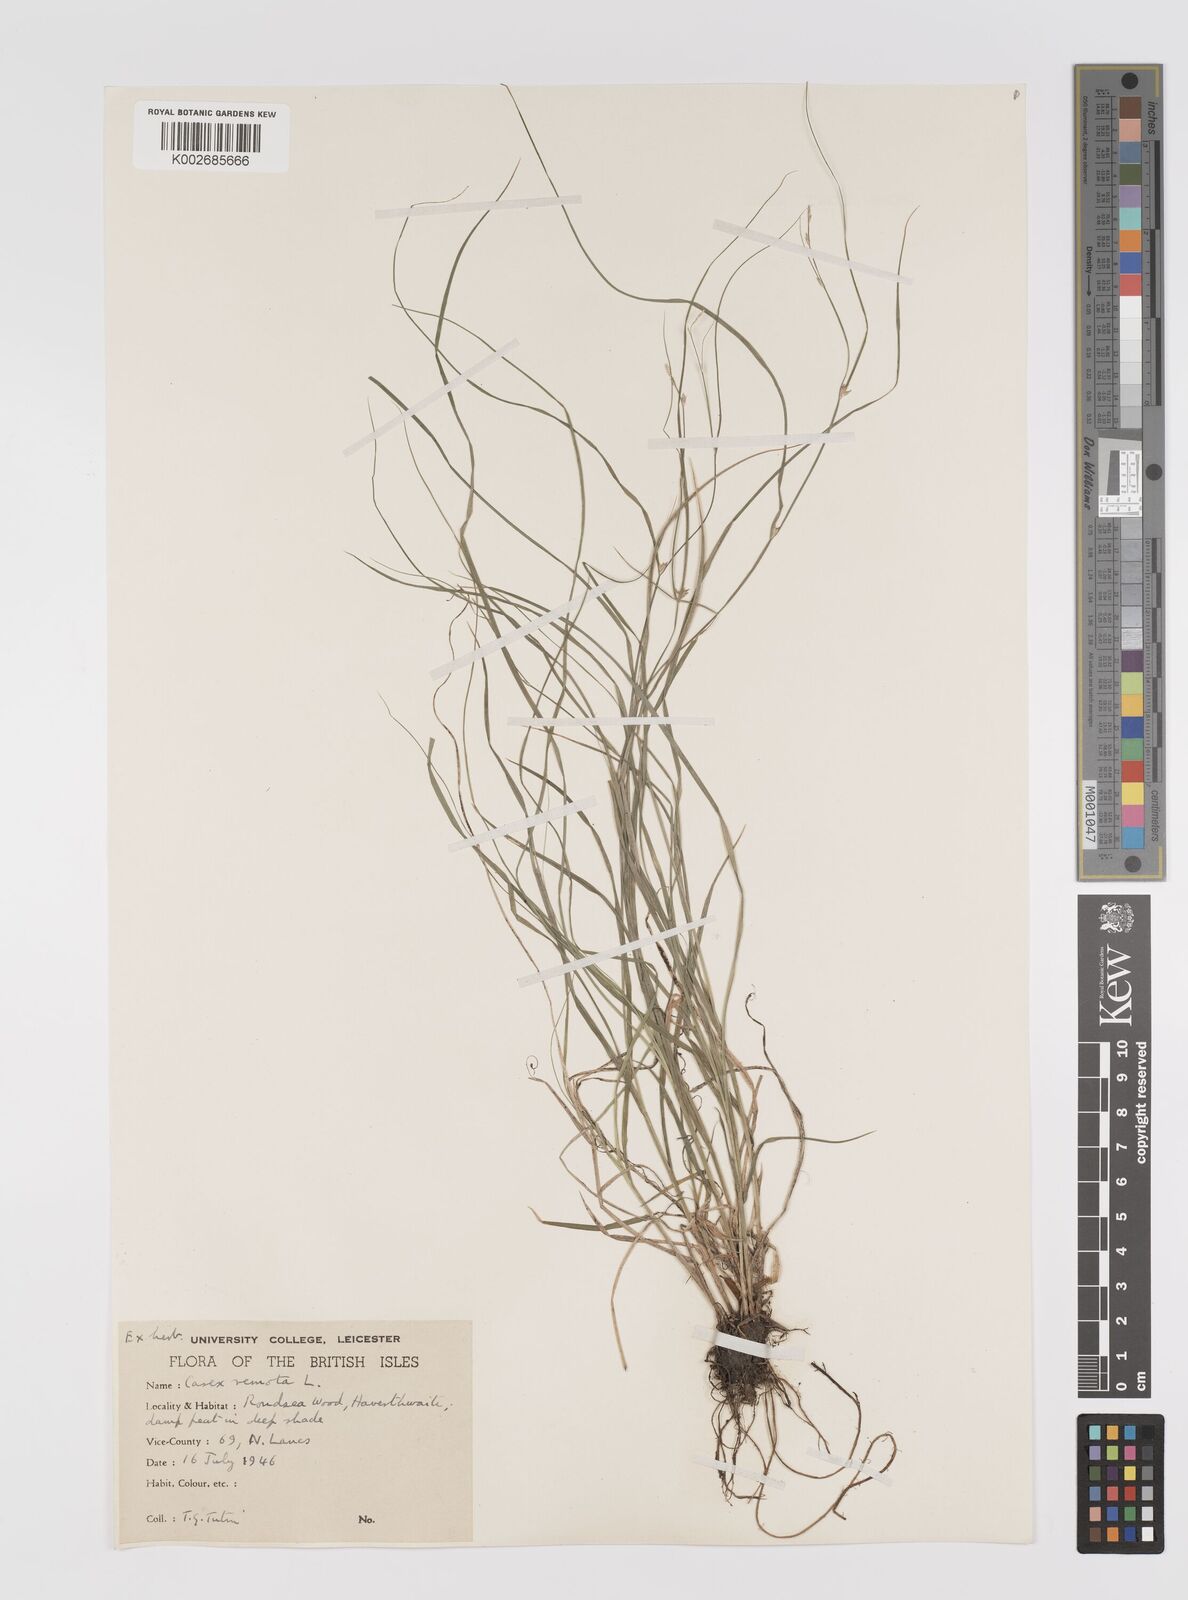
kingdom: Plantae
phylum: Tracheophyta
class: Liliopsida
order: Poales
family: Cyperaceae
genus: Carex
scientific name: Carex remota
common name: Remote sedge
